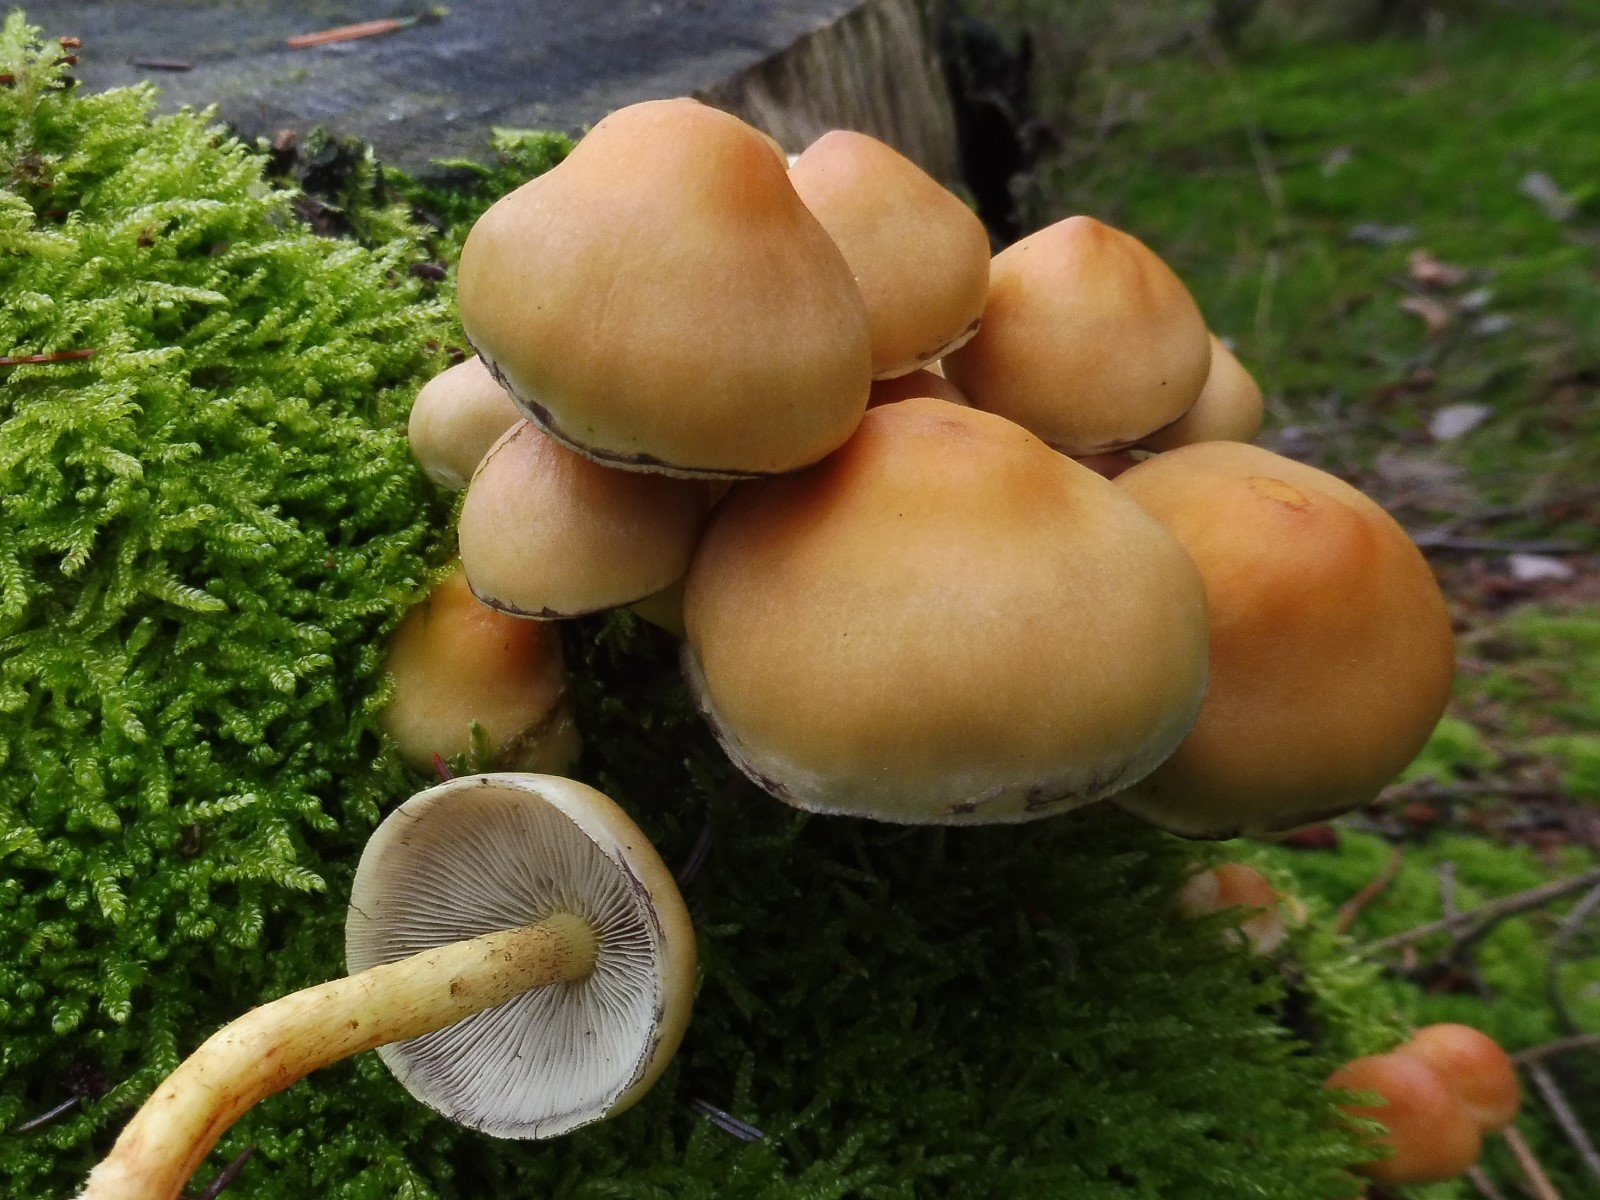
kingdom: Fungi
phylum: Basidiomycota
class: Agaricomycetes
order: Agaricales
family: Strophariaceae
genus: Hypholoma
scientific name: Hypholoma fasciculare
